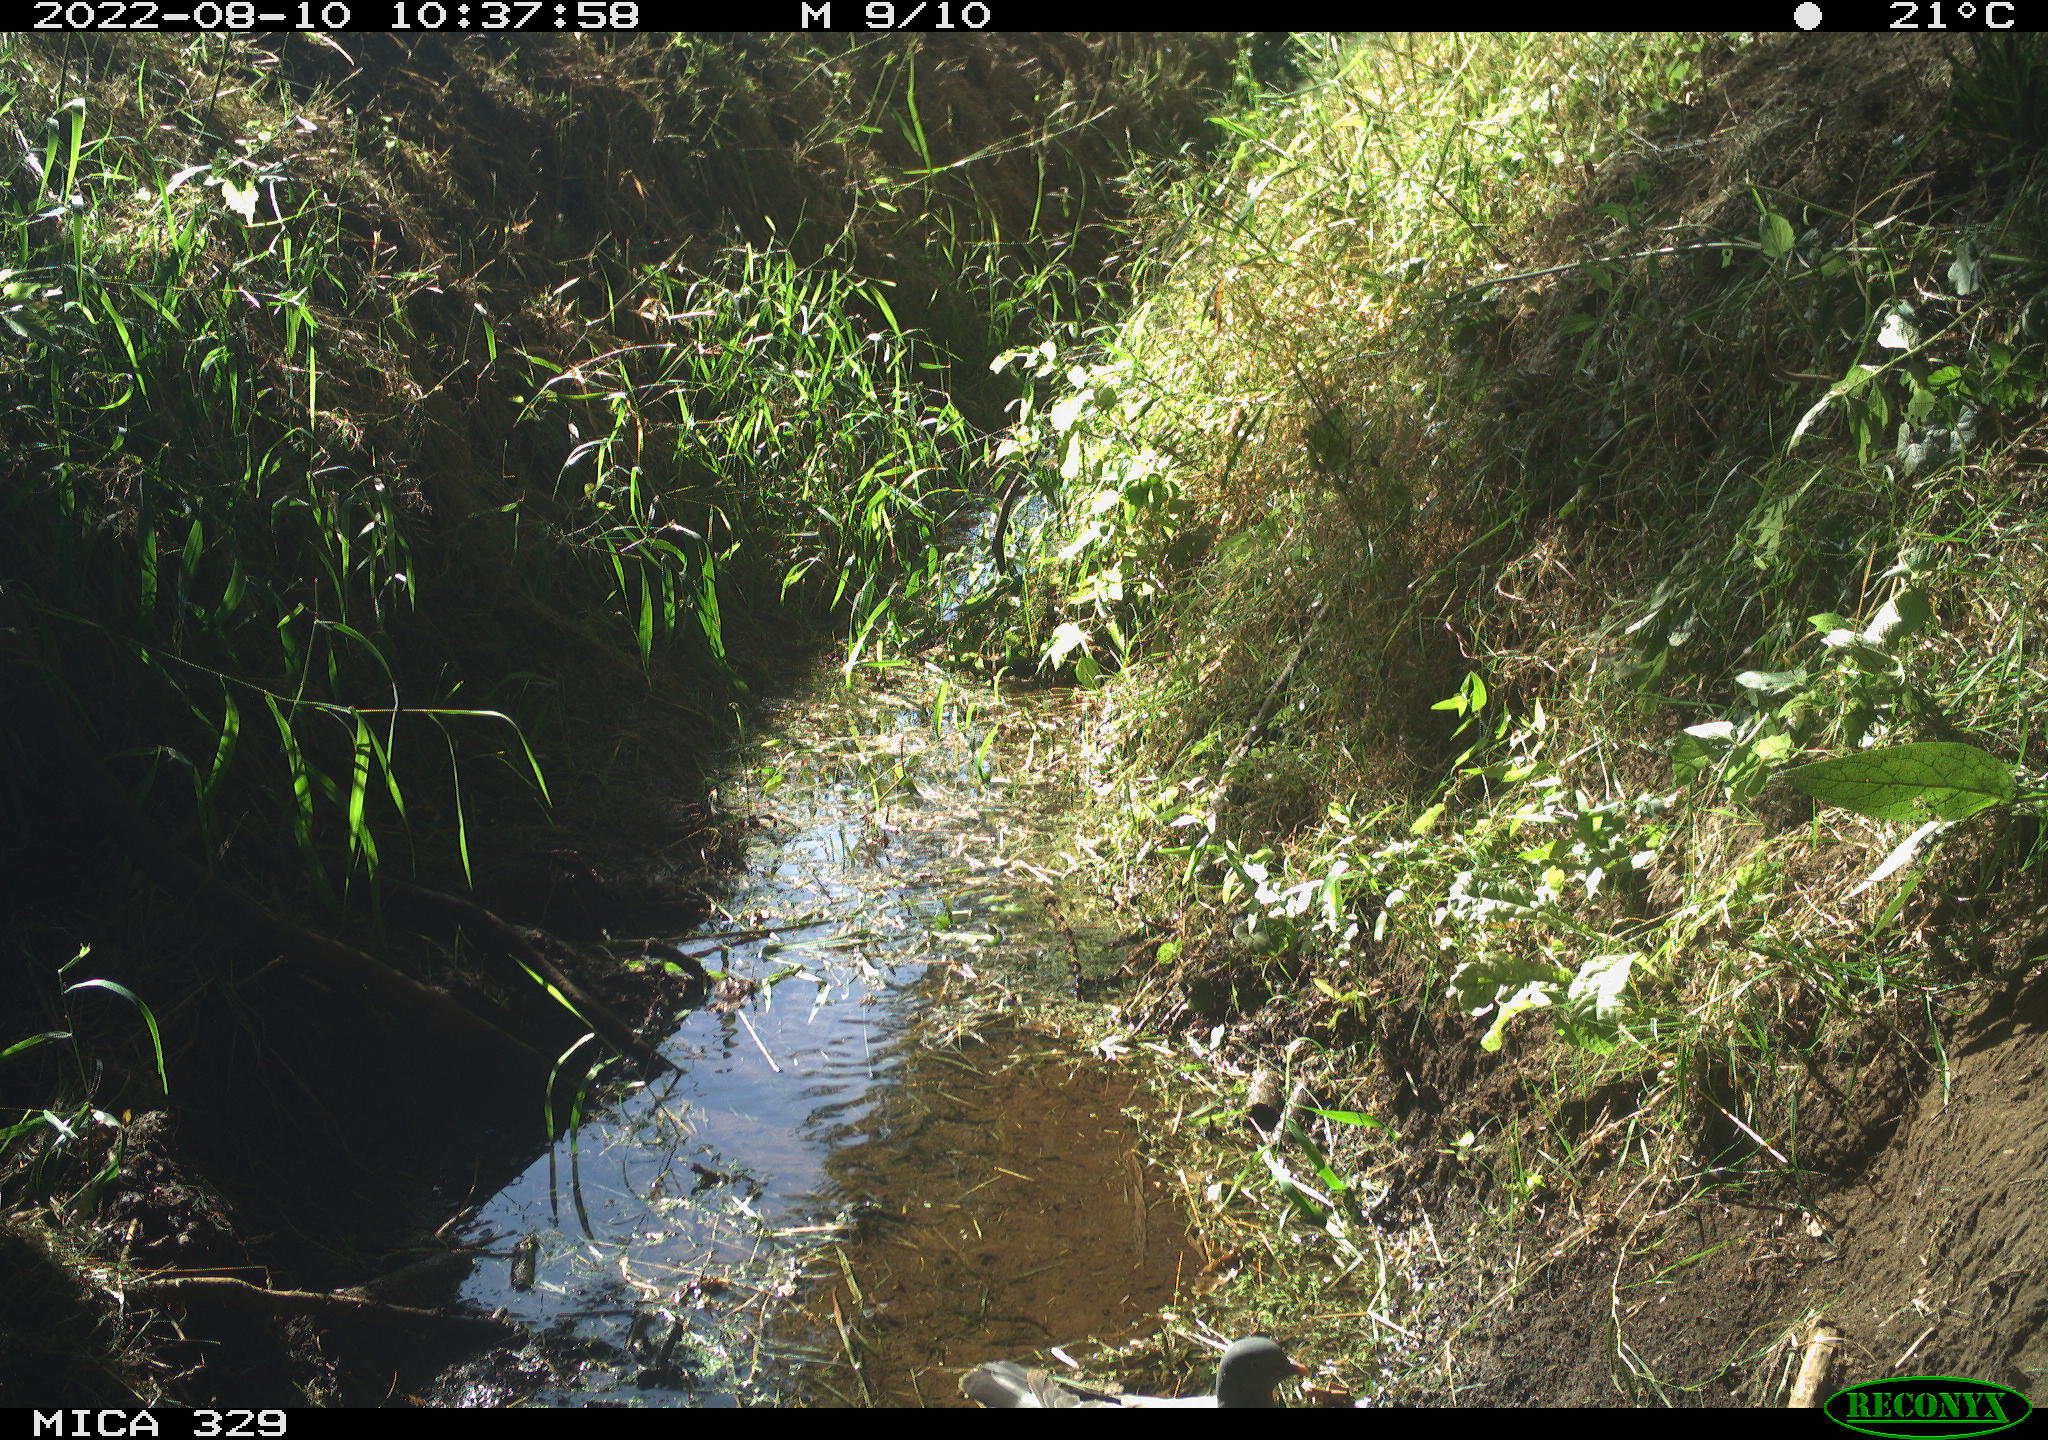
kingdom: Animalia
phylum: Chordata
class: Aves
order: Columbiformes
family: Columbidae
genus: Columba
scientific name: Columba palumbus
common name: Common wood pigeon
